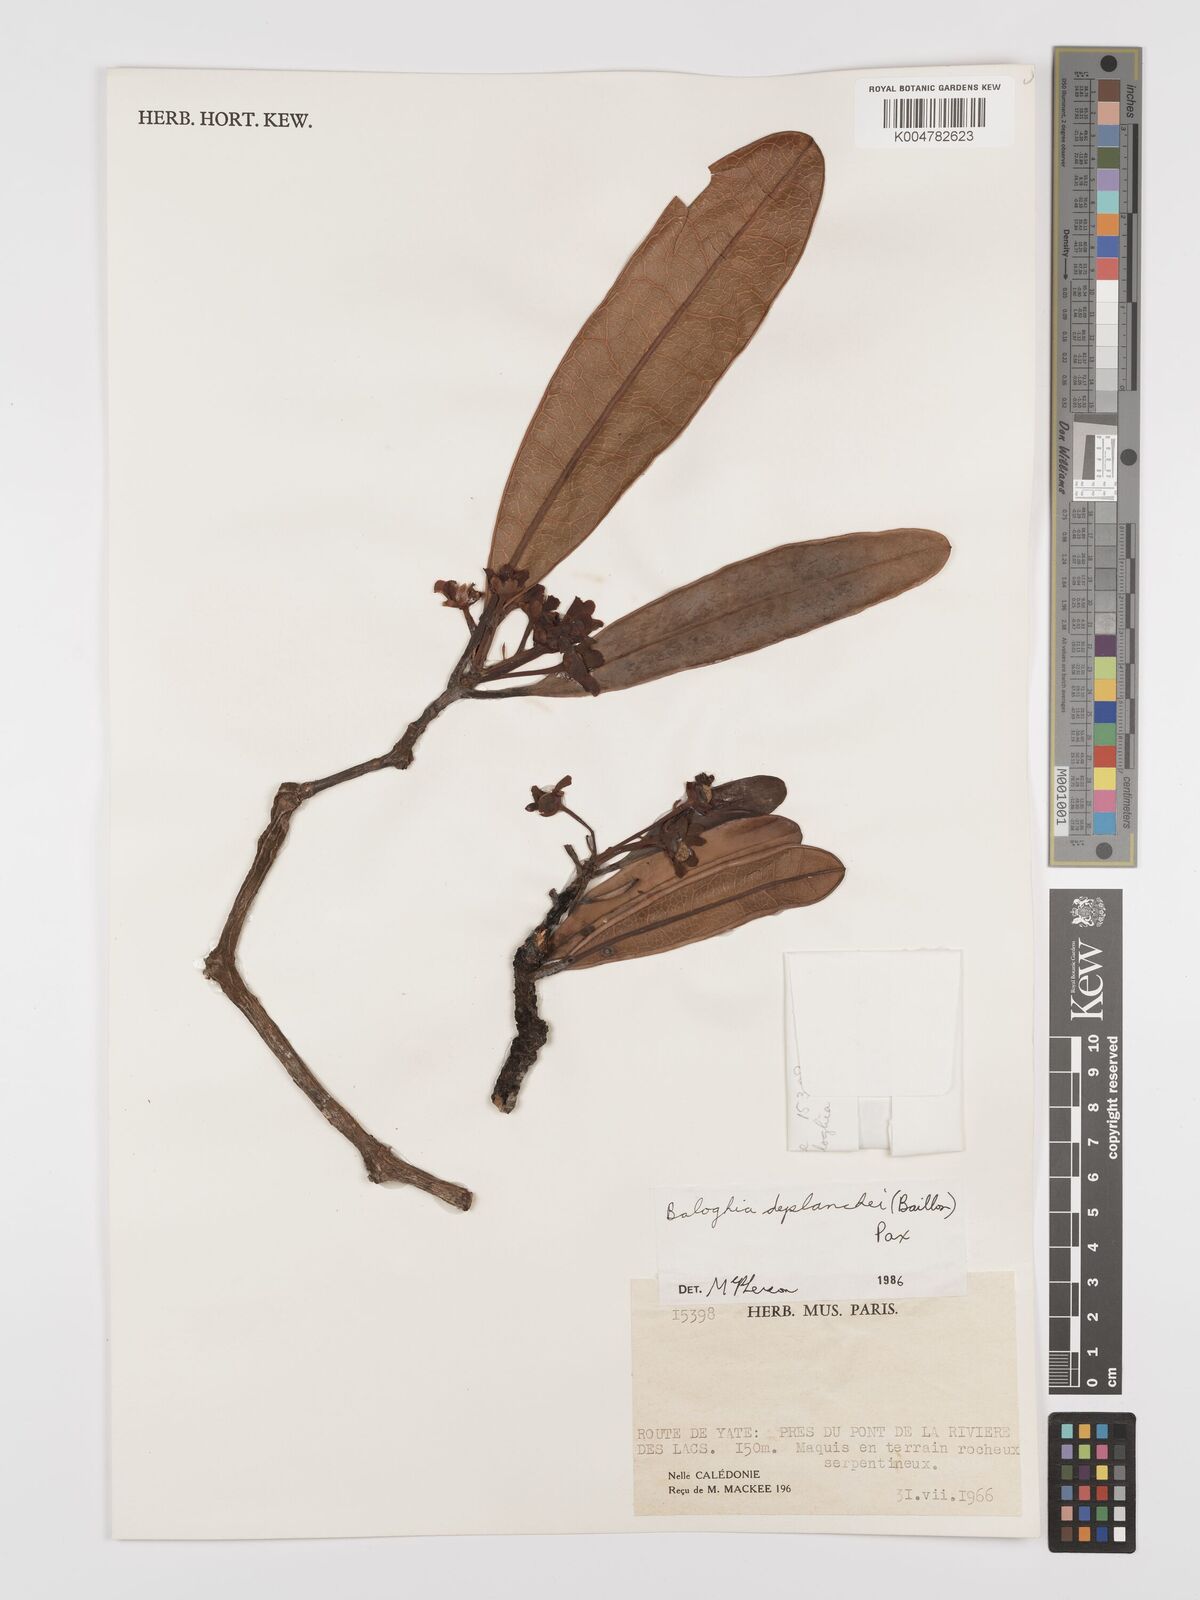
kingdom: Plantae
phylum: Tracheophyta
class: Magnoliopsida
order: Malpighiales
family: Euphorbiaceae
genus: Baloghia
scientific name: Baloghia deplanchei
